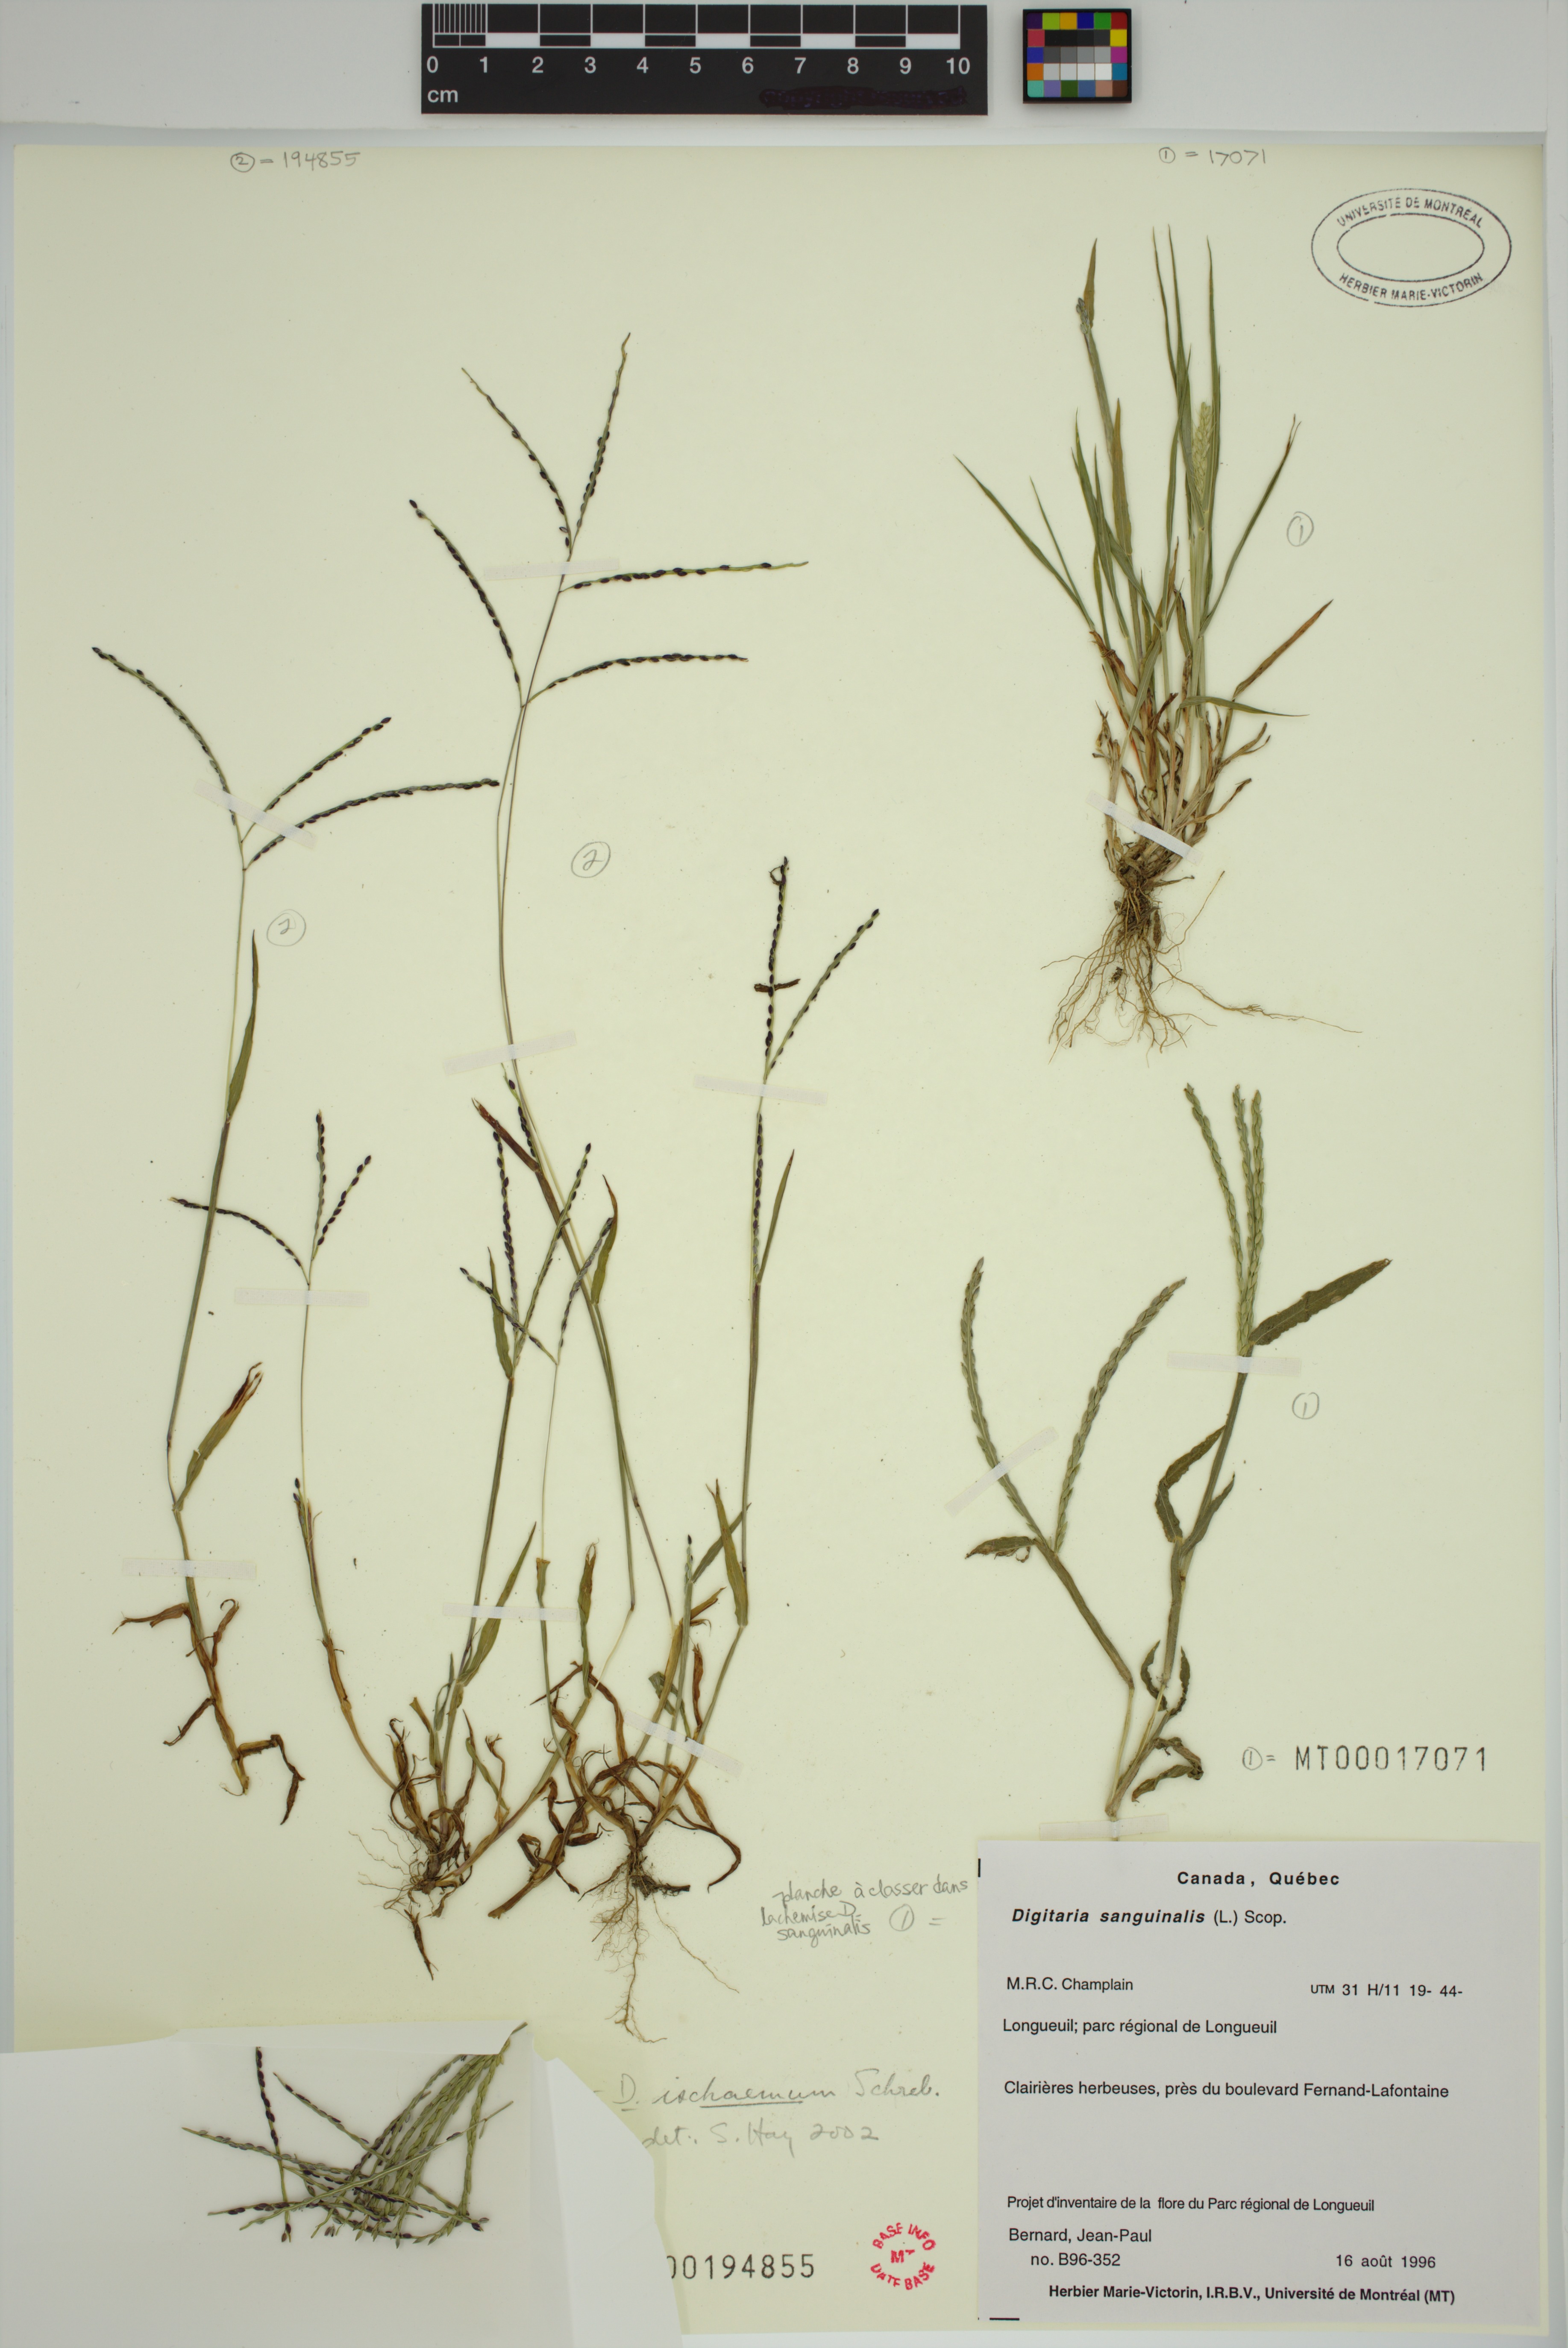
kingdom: Plantae
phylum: Tracheophyta
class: Liliopsida
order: Poales
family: Poaceae
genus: Digitaria
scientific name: Digitaria ischaemum
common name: Smooth crabgrass
